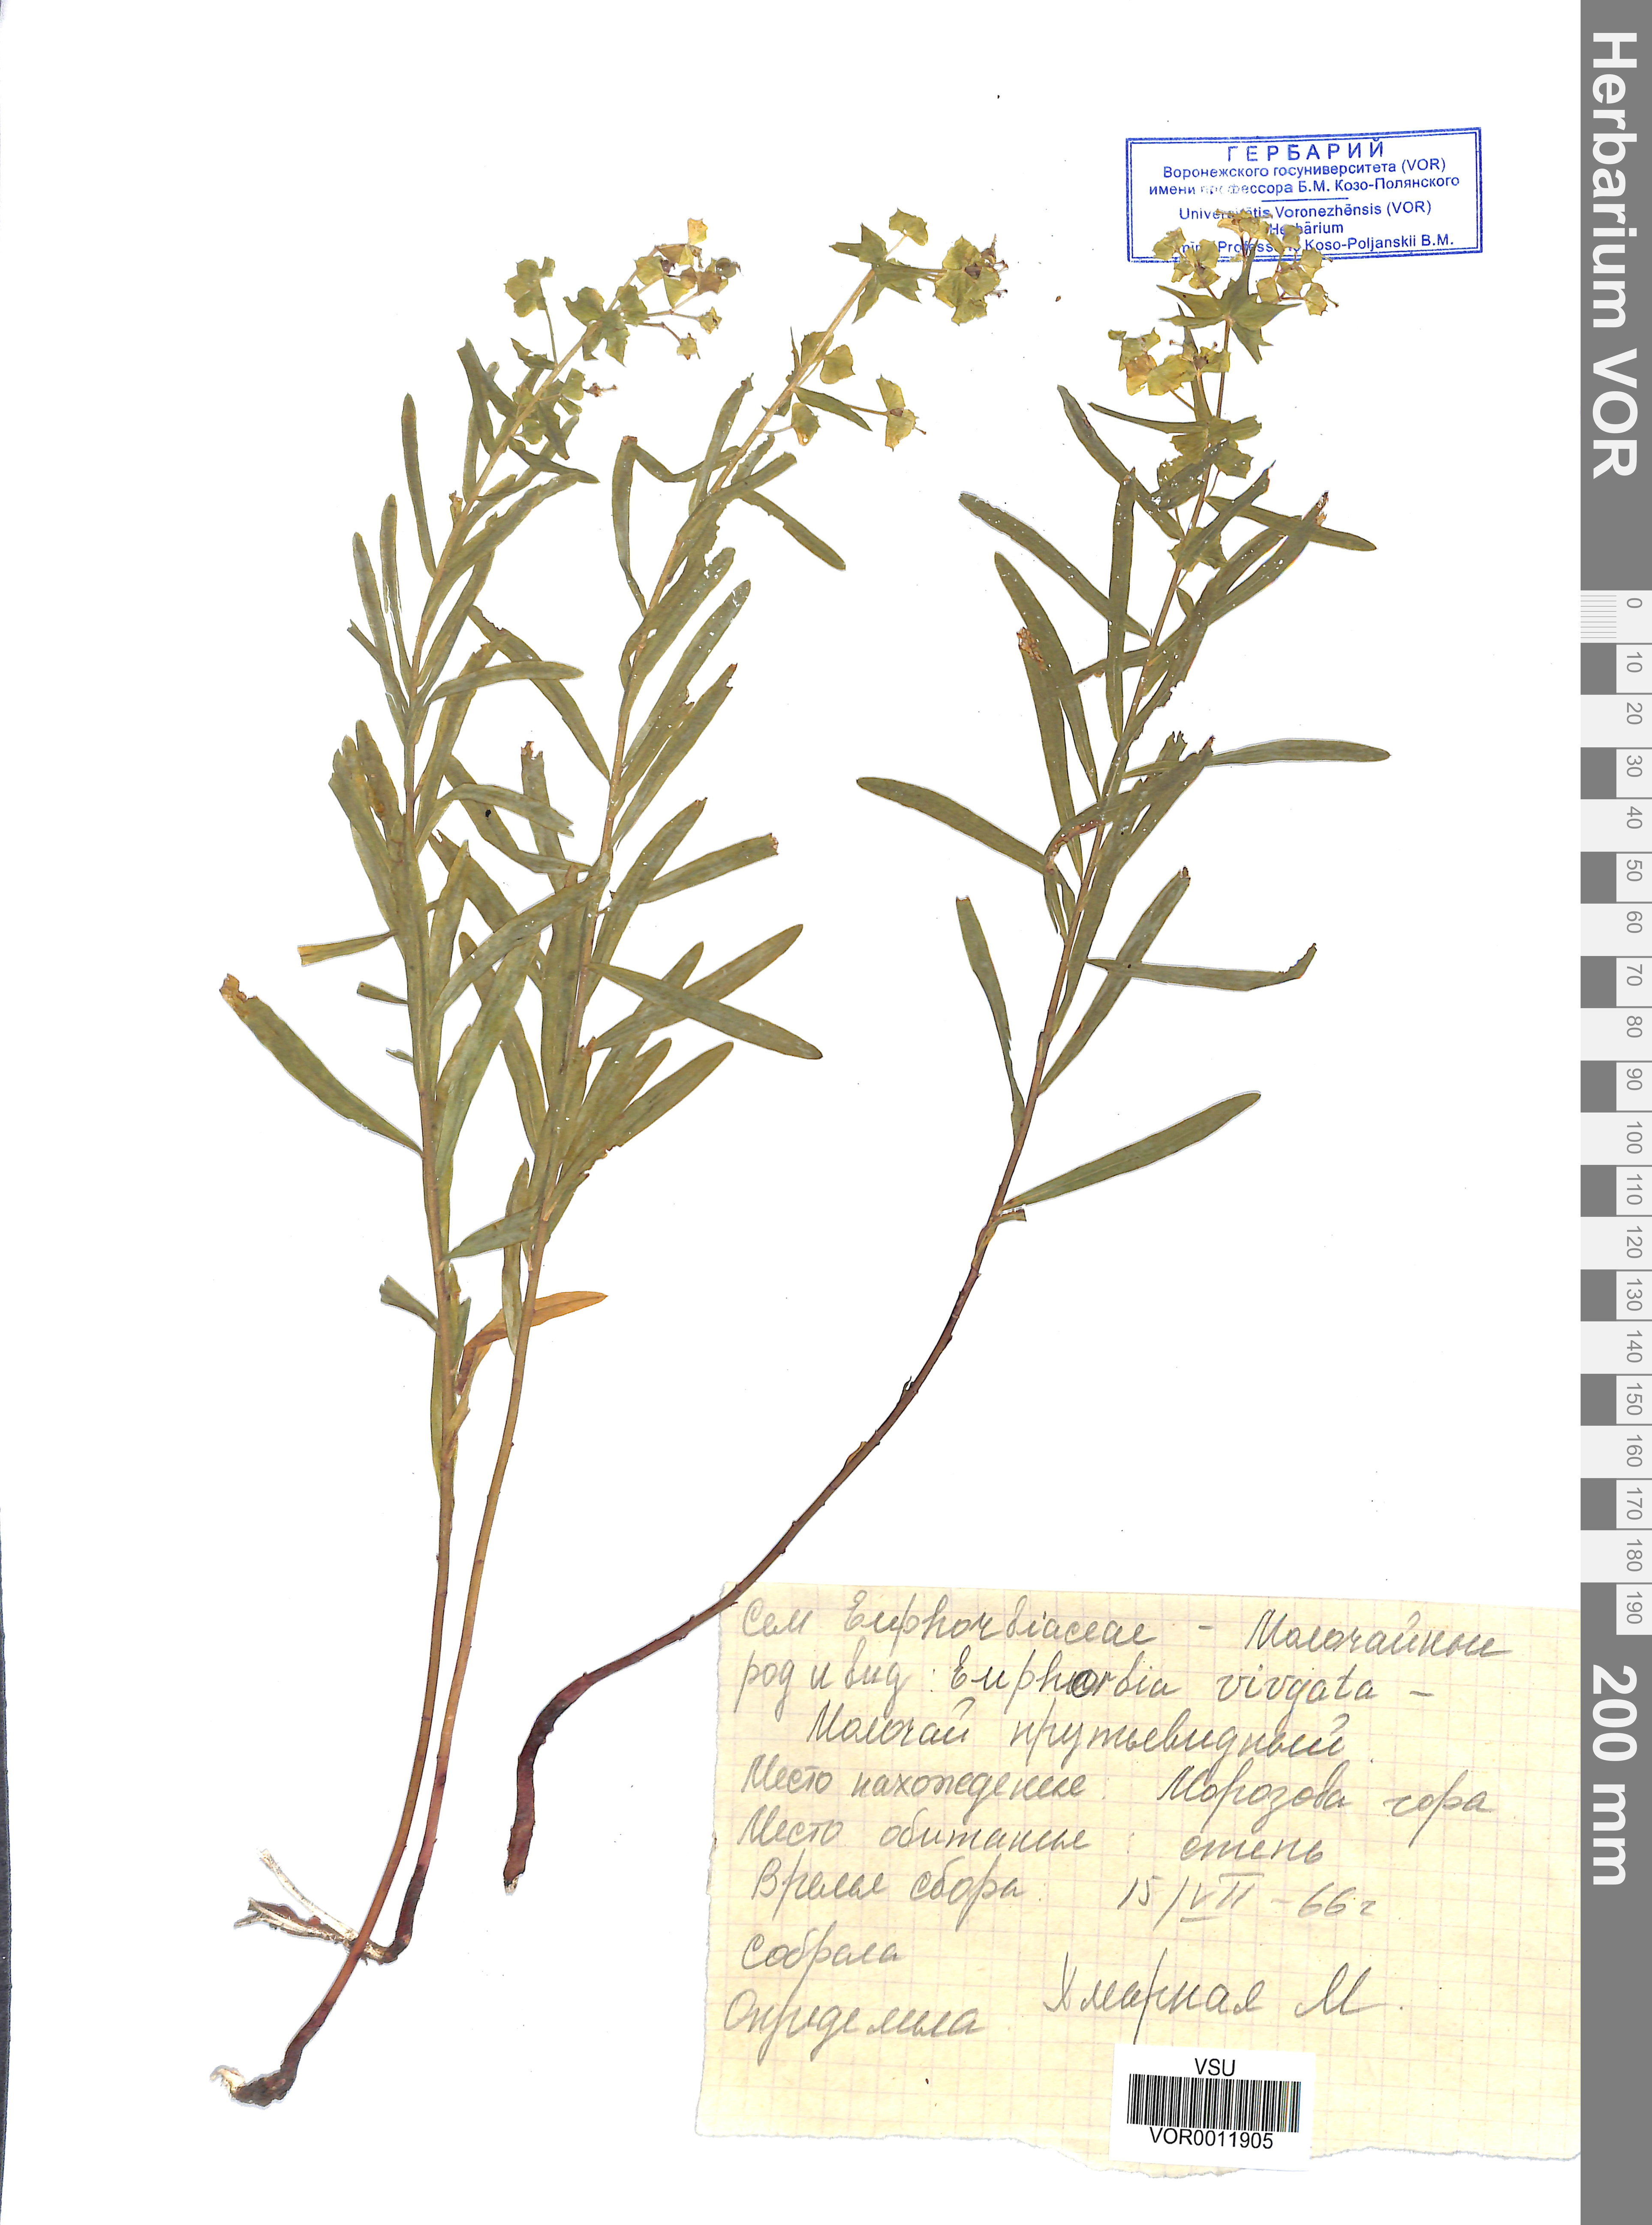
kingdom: Plantae
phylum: Tracheophyta
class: Magnoliopsida
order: Malpighiales
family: Euphorbiaceae
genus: Euphorbia
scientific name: Euphorbia virgata
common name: Leafy spurge
